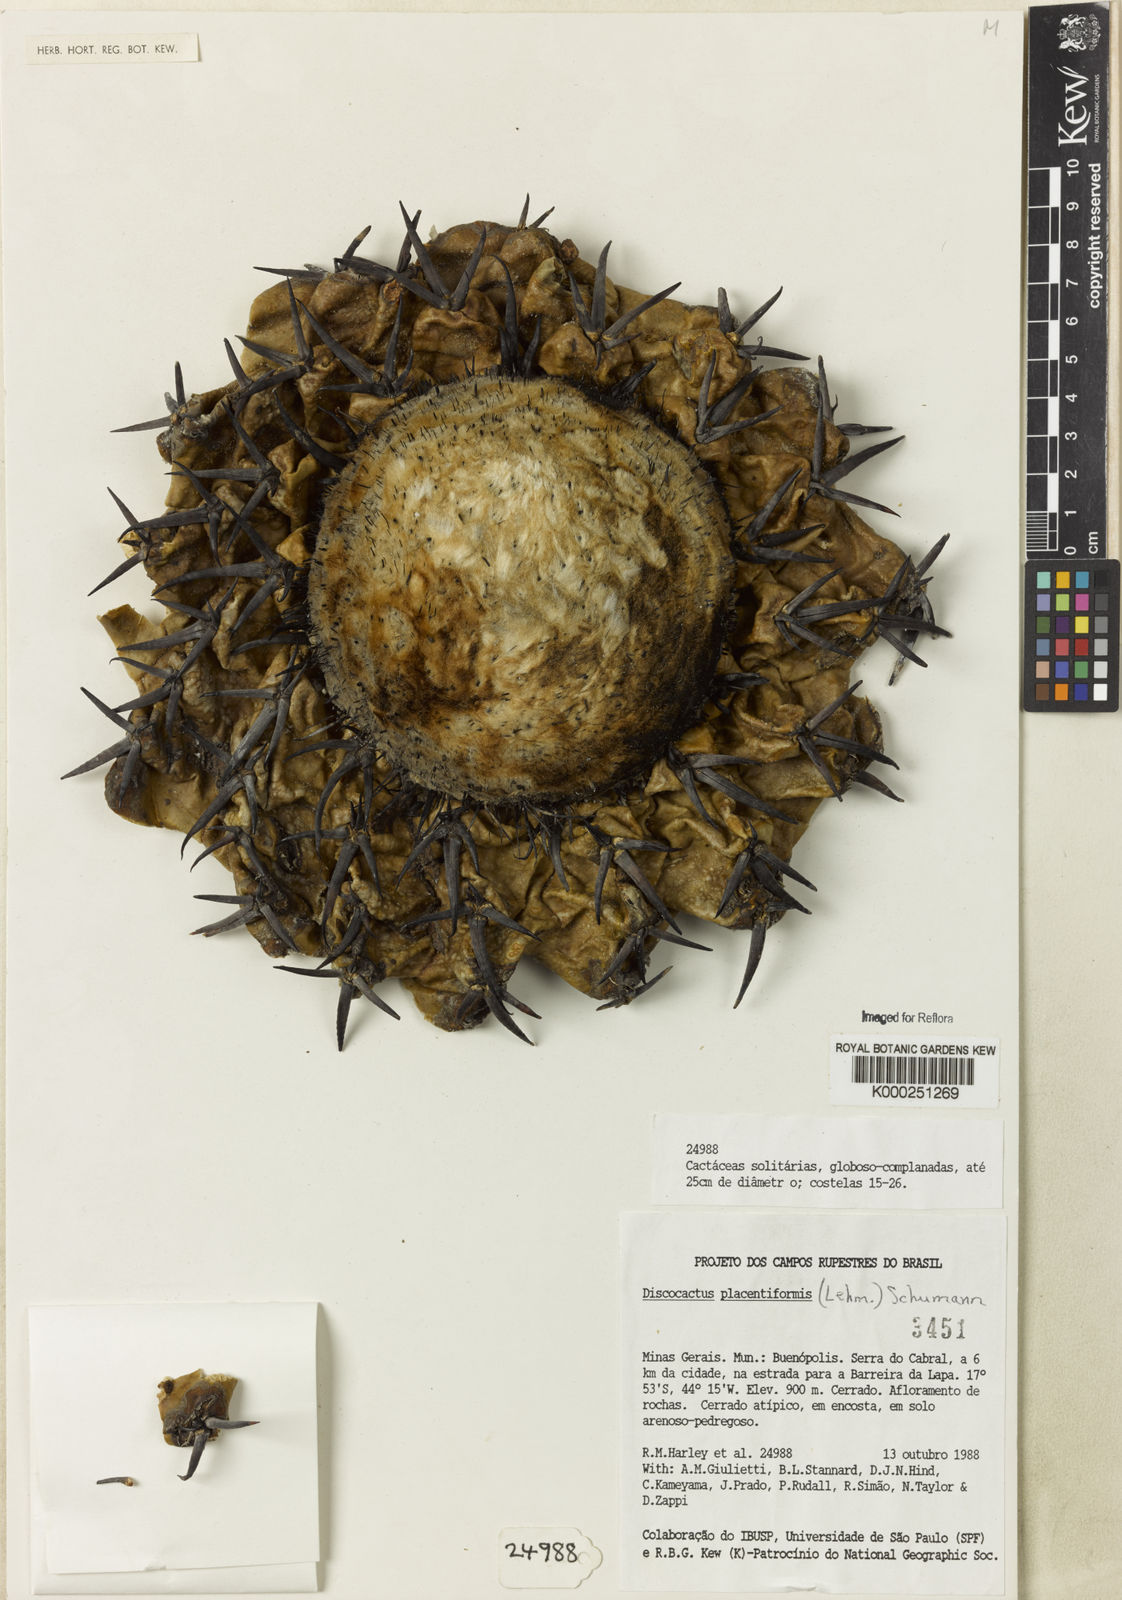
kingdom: Plantae
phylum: Tracheophyta
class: Magnoliopsida
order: Caryophyllales
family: Cactaceae
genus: Discocactus
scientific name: Discocactus placentiformis
